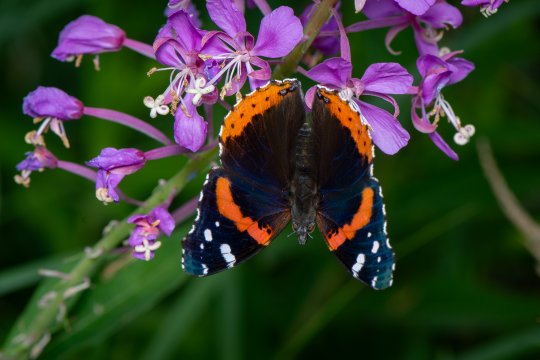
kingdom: Animalia
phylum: Arthropoda
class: Insecta
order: Lepidoptera
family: Nymphalidae
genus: Vanessa
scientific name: Vanessa atalanta
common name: Red Admiral
